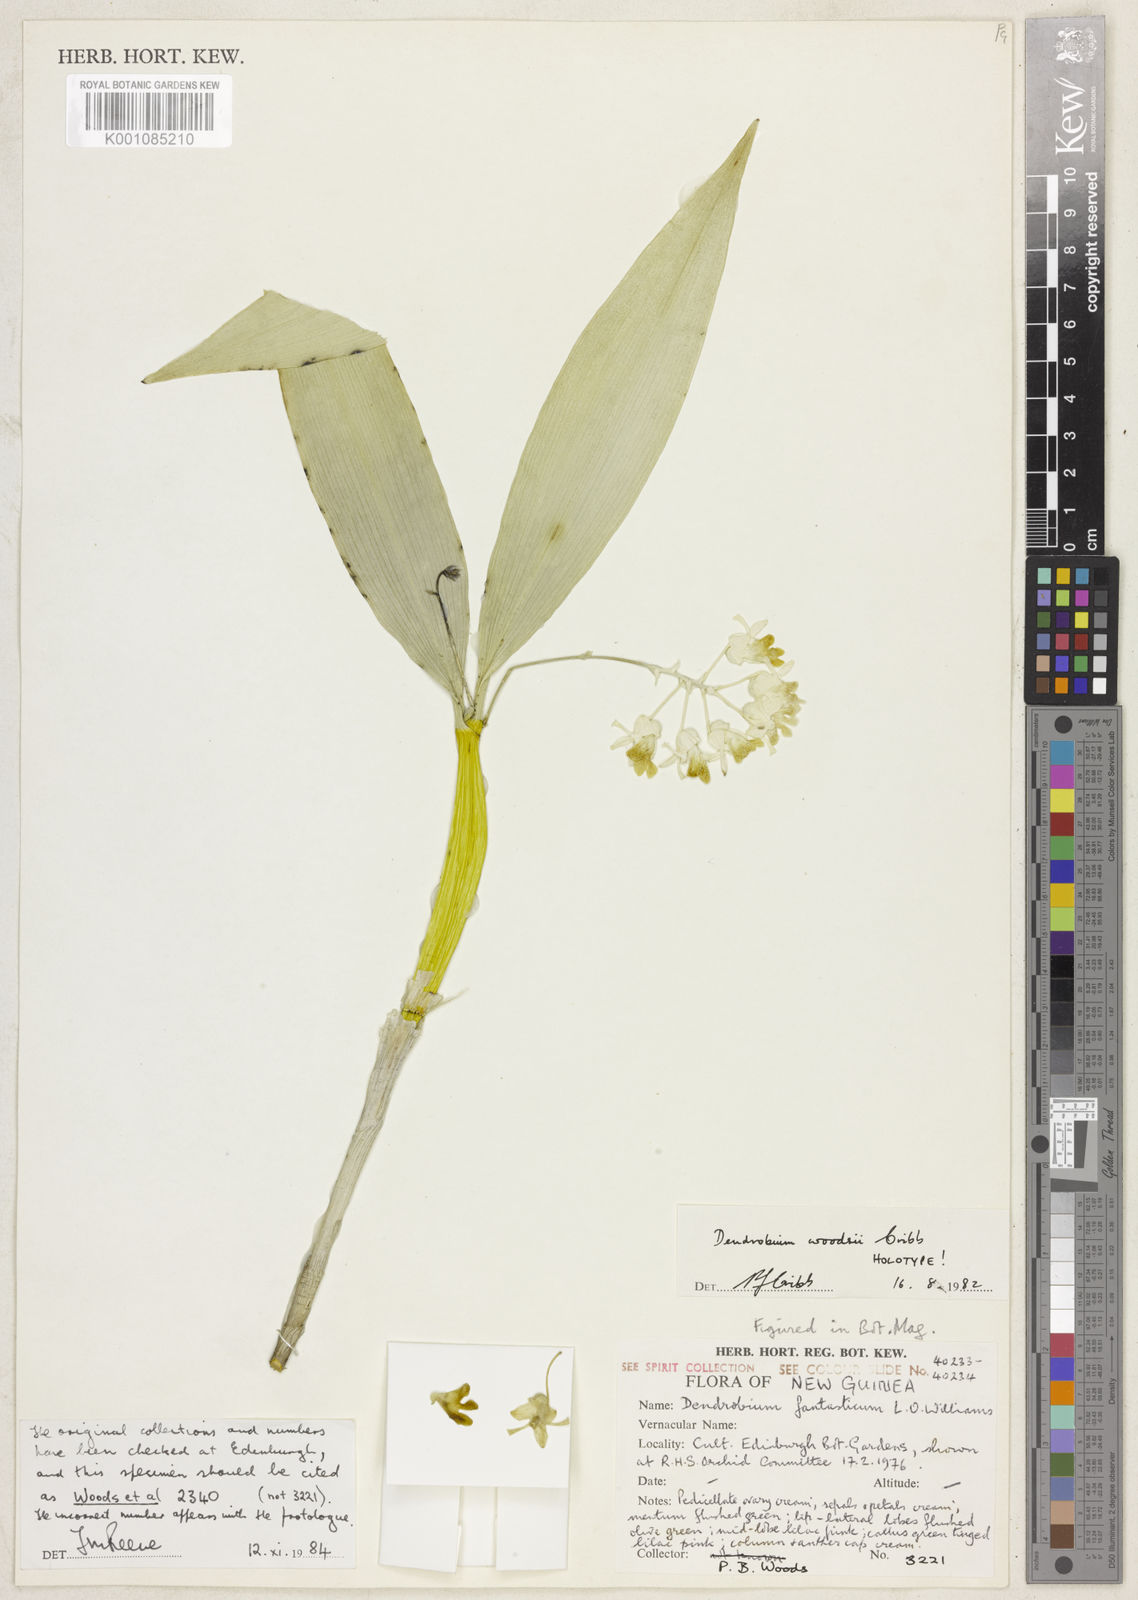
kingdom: Plantae
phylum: Tracheophyta
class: Liliopsida
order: Asparagales
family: Orchidaceae
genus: Dendrobium
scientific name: Dendrobium woodsii
